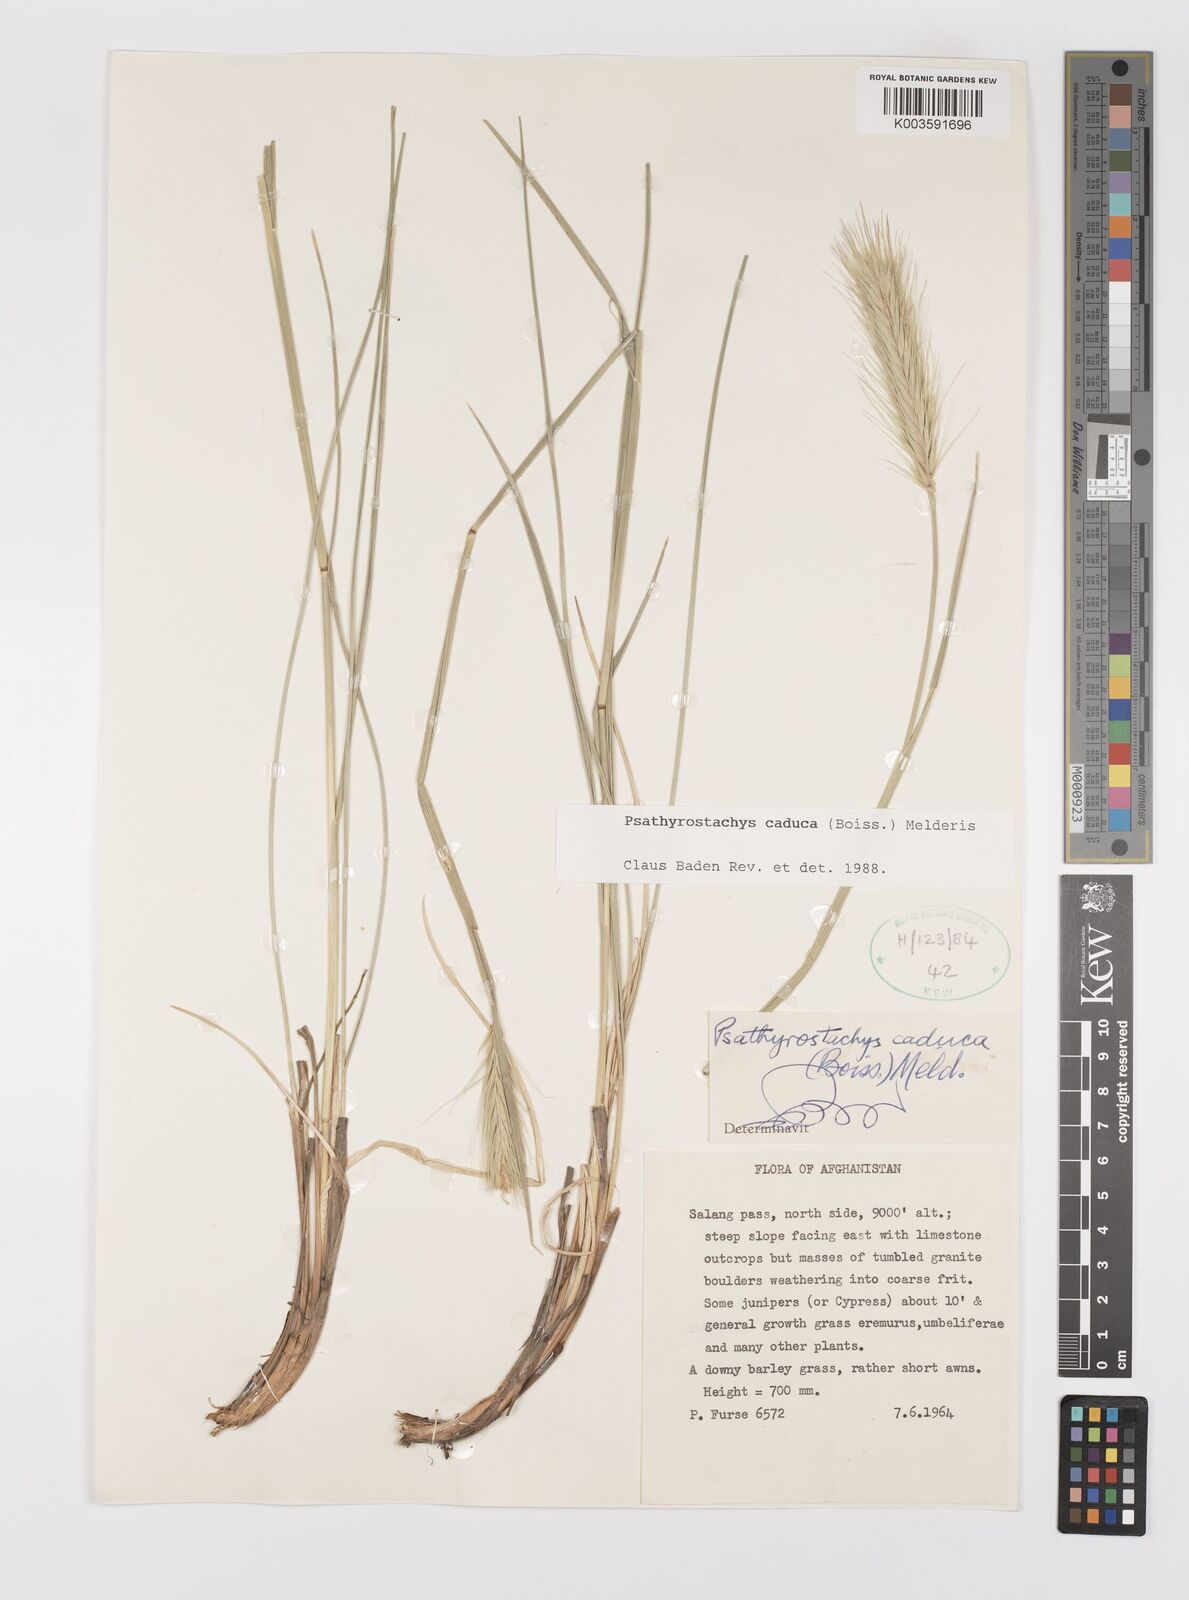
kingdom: Plantae
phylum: Tracheophyta
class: Liliopsida
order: Poales
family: Poaceae
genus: Psathyrostachys
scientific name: Psathyrostachys caduca
